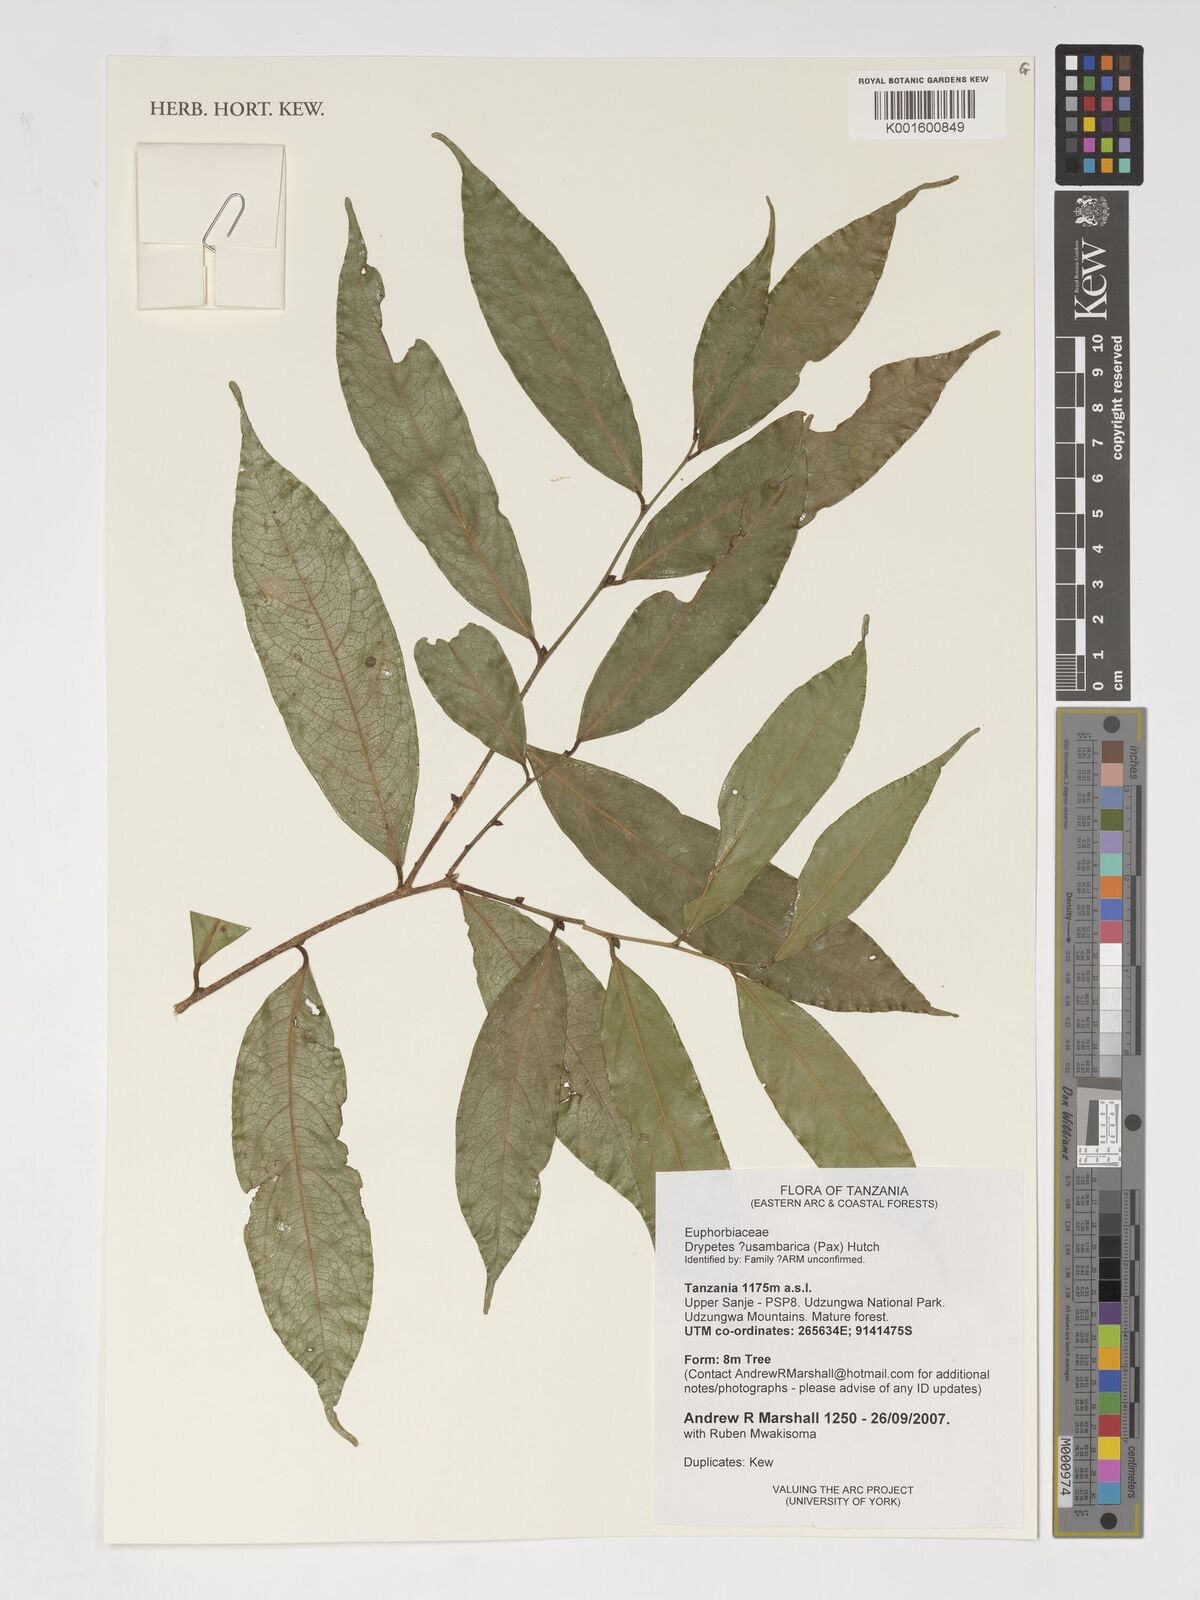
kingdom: Plantae
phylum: Tracheophyta
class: Magnoliopsida
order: Malpighiales
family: Putranjivaceae
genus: Drypetes
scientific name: Drypetes usambarica
